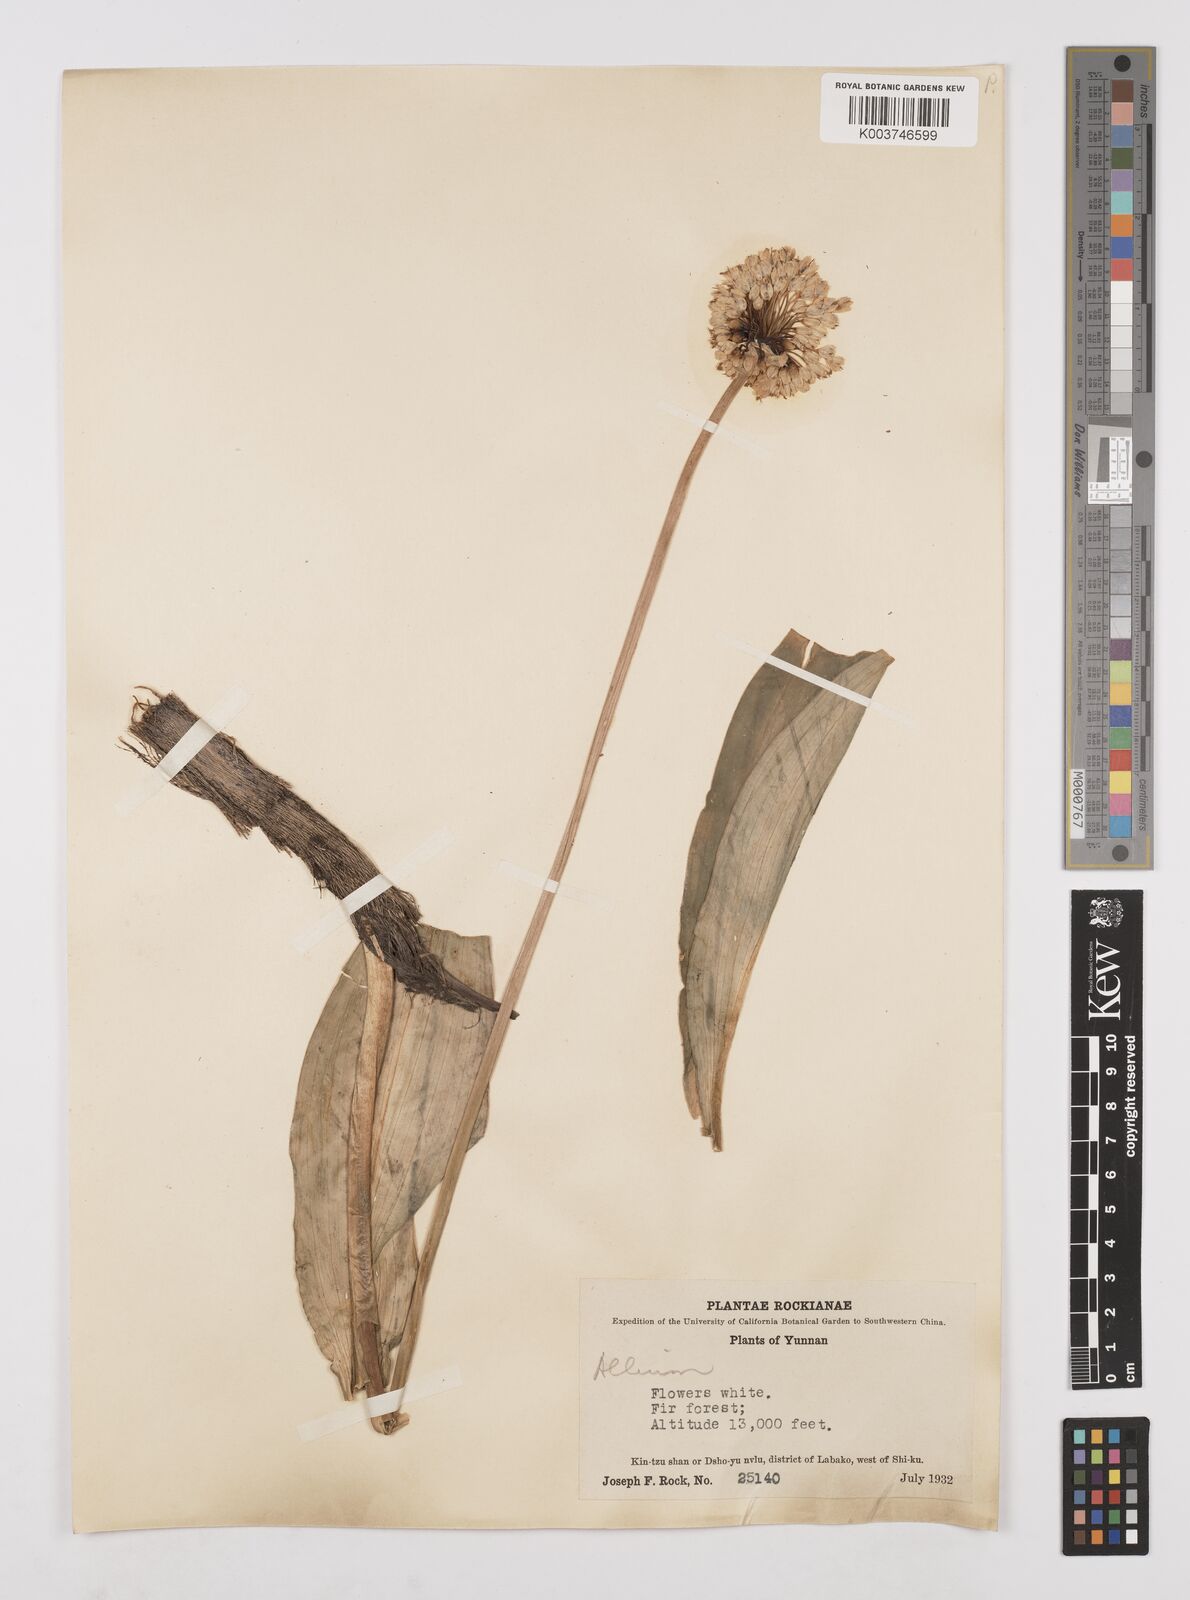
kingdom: Plantae
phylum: Tracheophyta
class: Liliopsida
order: Asparagales
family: Amaryllidaceae
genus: Allium
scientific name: Allium victorialis
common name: Alpine leek
